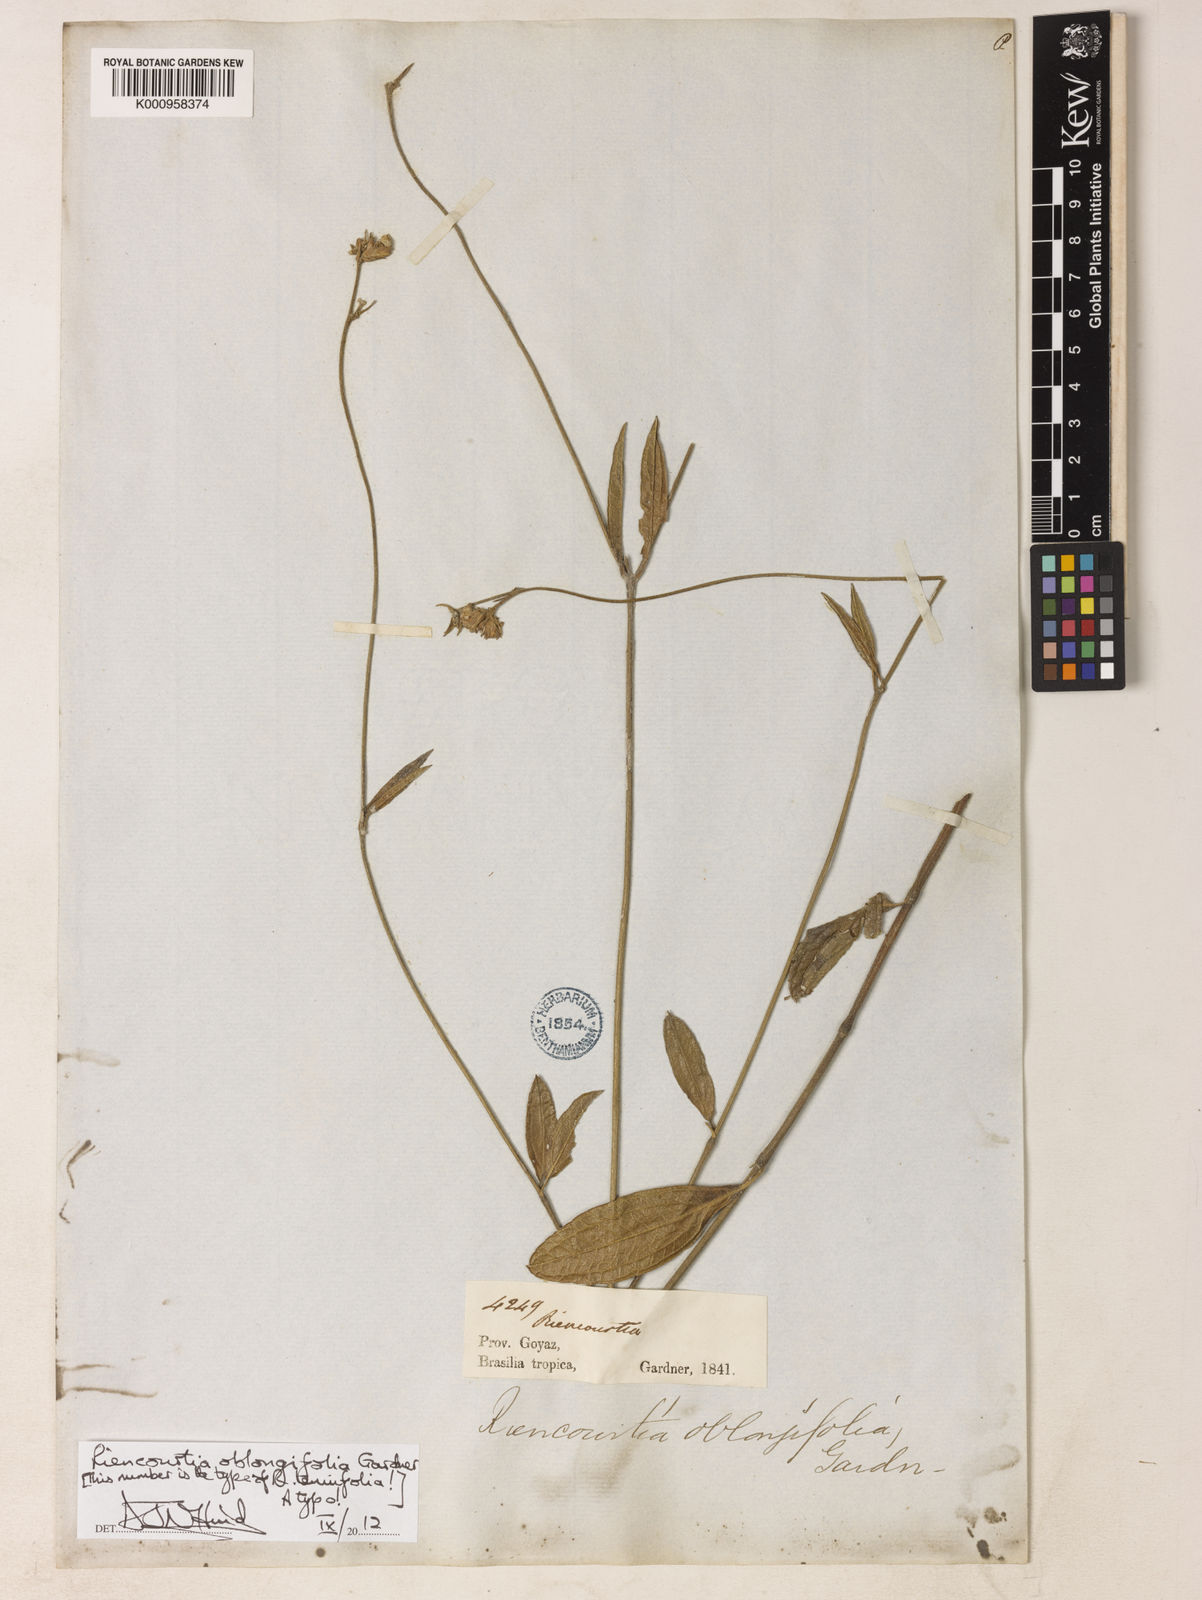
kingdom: Plantae
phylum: Tracheophyta
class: Magnoliopsida
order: Asterales
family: Asteraceae
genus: Riencourtia
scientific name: Riencourtia oblongifolia
